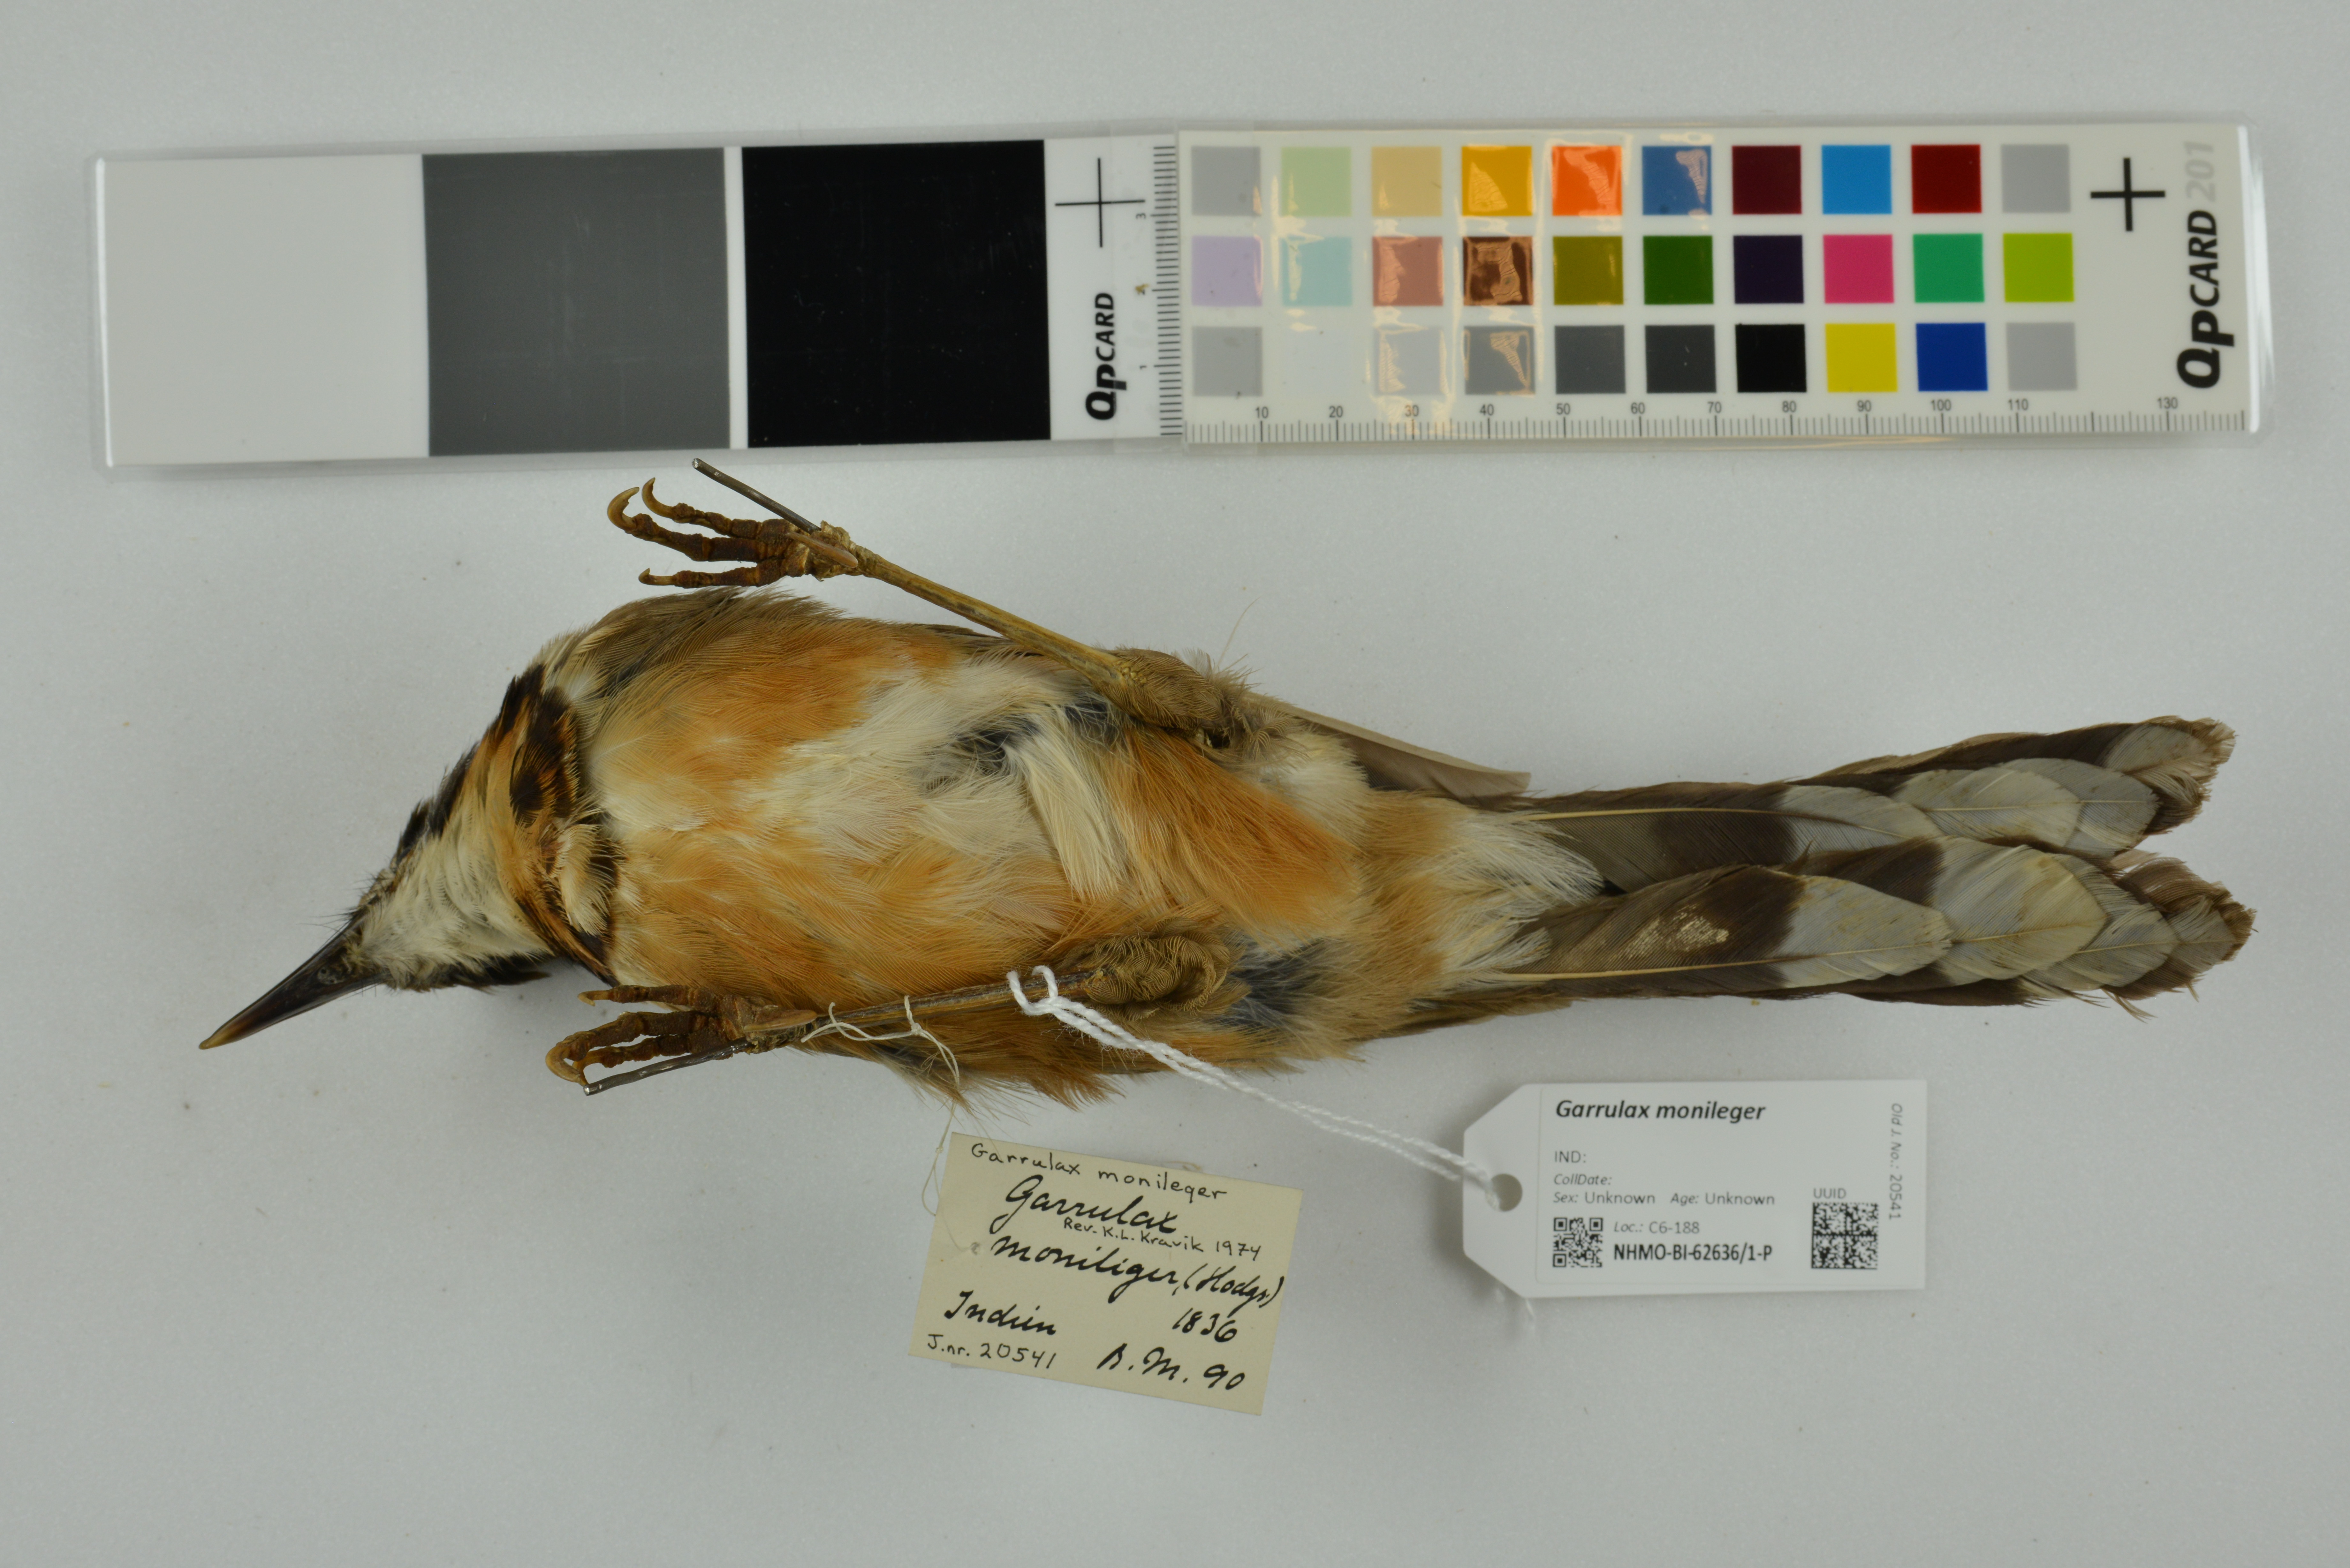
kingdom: Animalia
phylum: Chordata
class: Aves
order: Passeriformes
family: Leiothrichidae
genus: Garrulax
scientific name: Garrulax monileger
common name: Lesser necklaced laughingthrush
